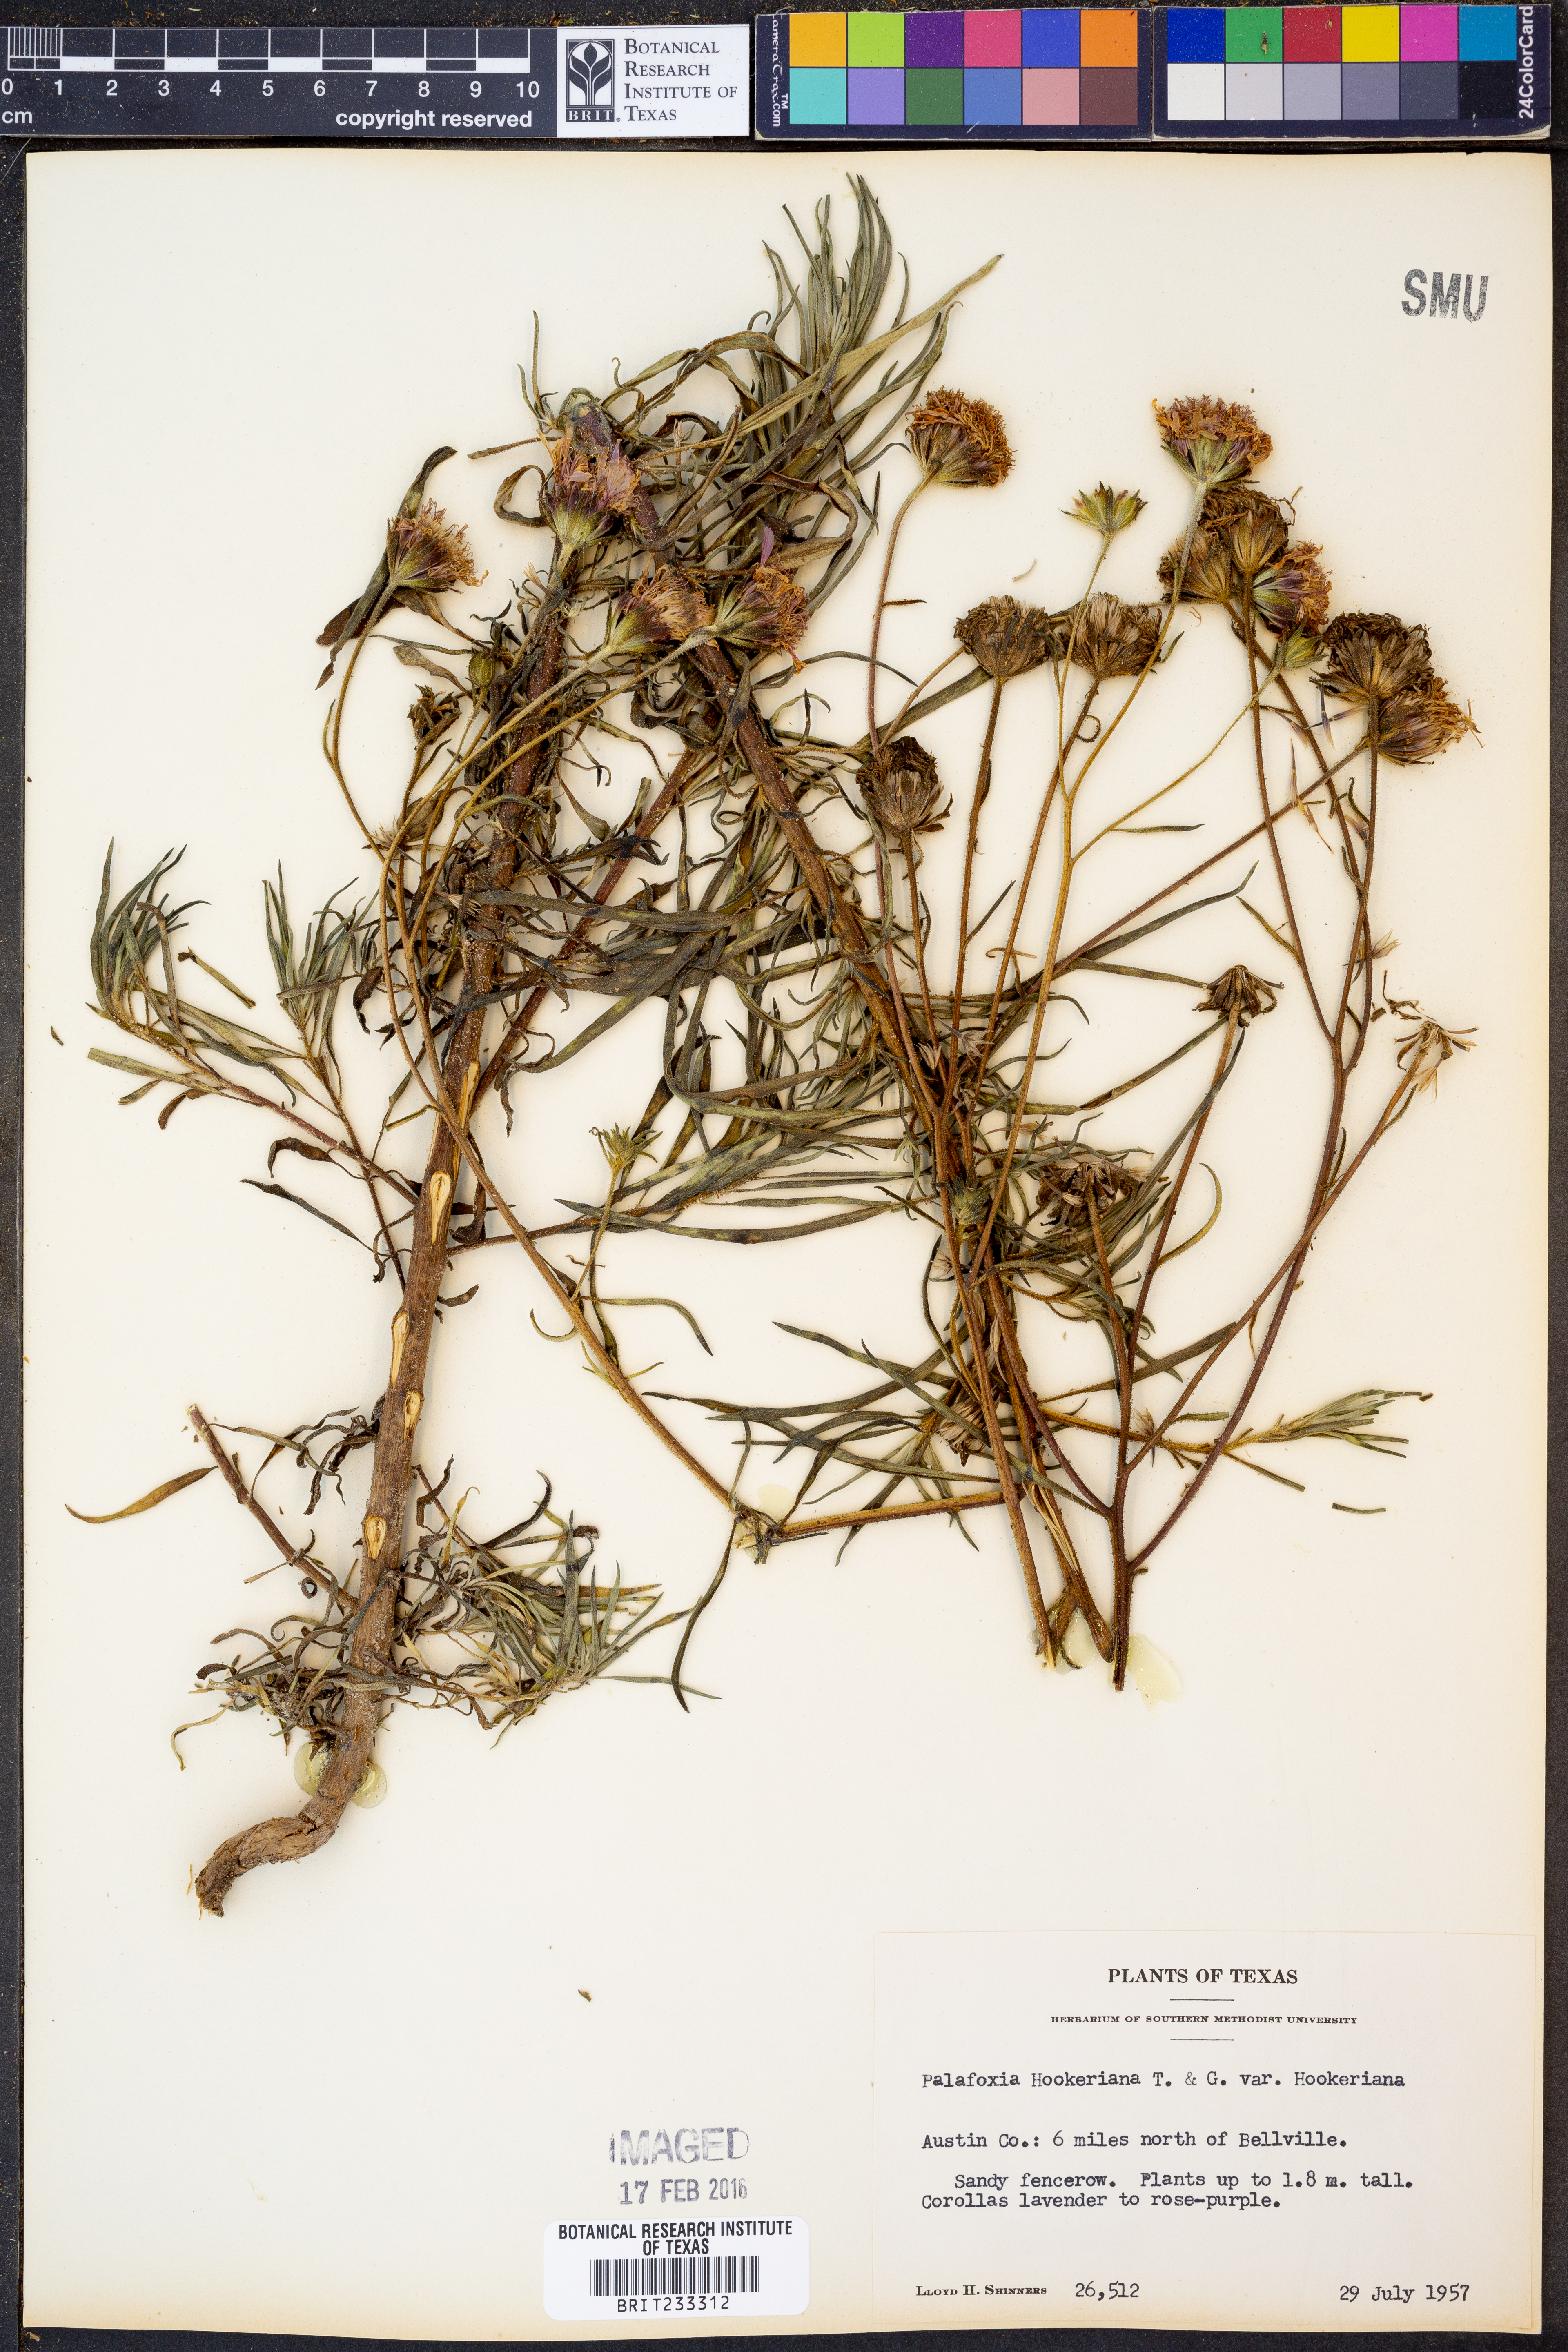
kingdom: Plantae
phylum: Tracheophyta
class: Magnoliopsida
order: Asterales
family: Asteraceae
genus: Palafoxia
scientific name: Palafoxia hookeriana
